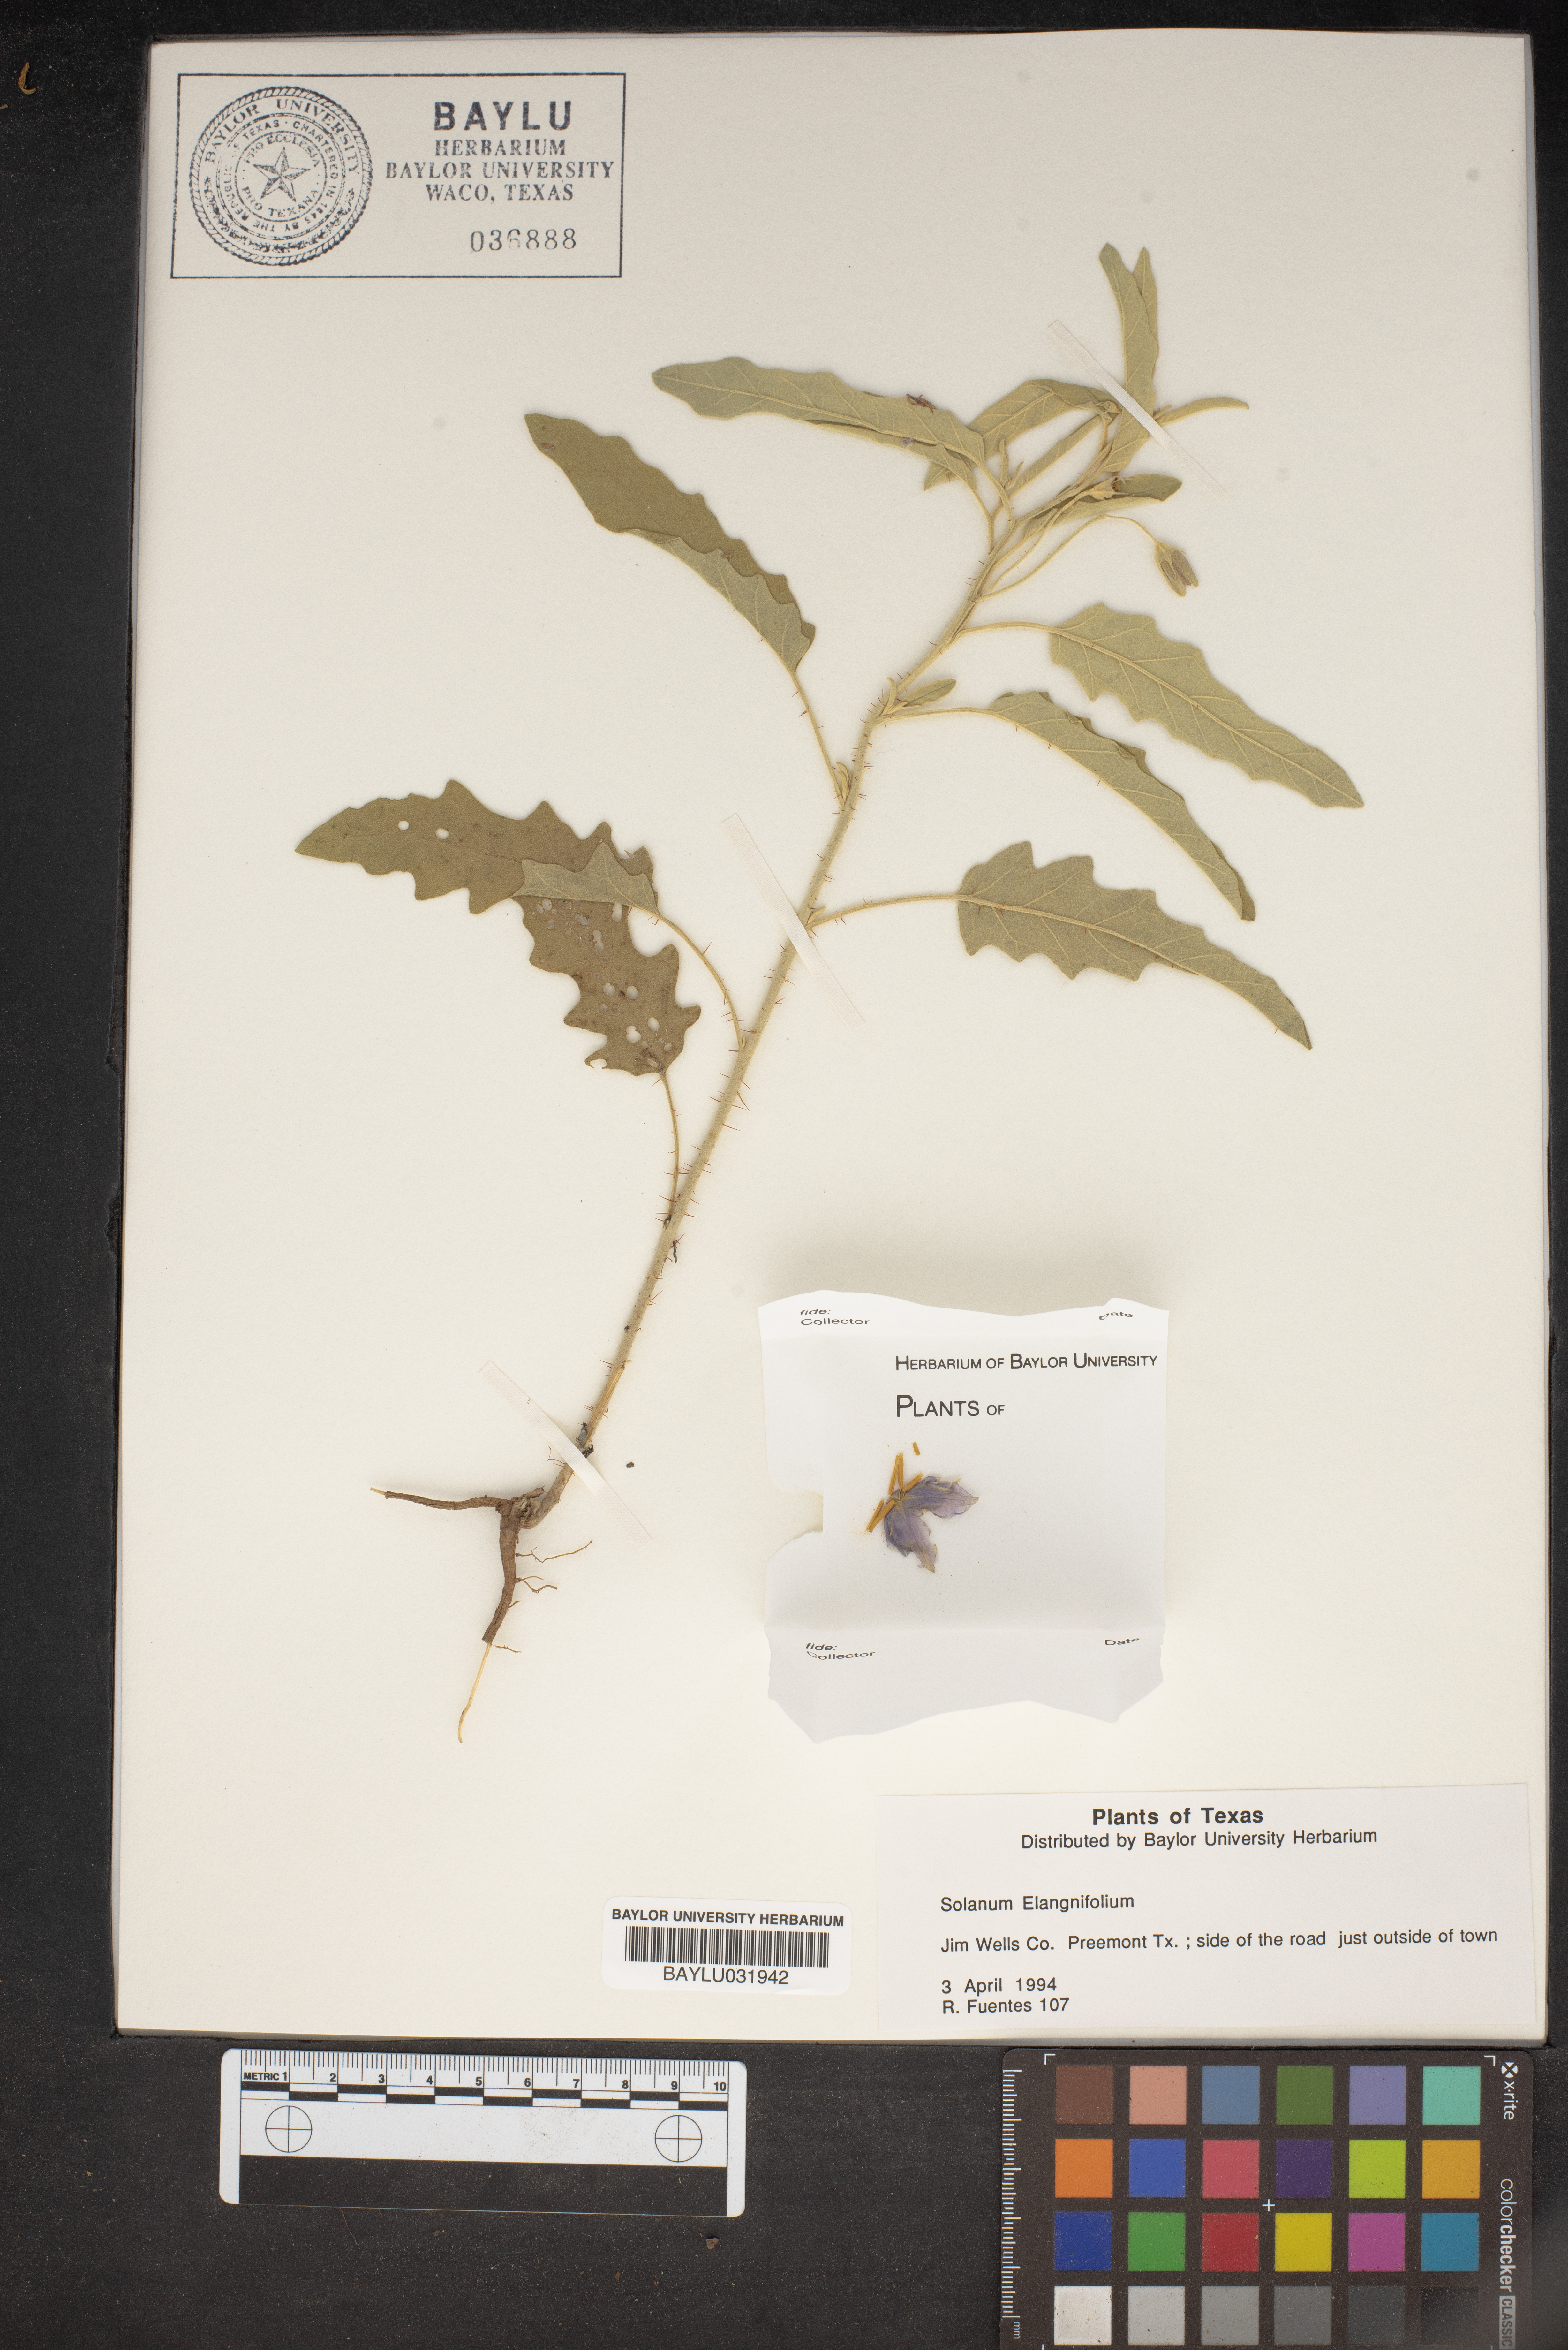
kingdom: Plantae
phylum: Tracheophyta
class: Magnoliopsida
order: Solanales
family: Solanaceae
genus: Solanum
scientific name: Solanum elaeagnifolium
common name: Silverleaf nightshade
